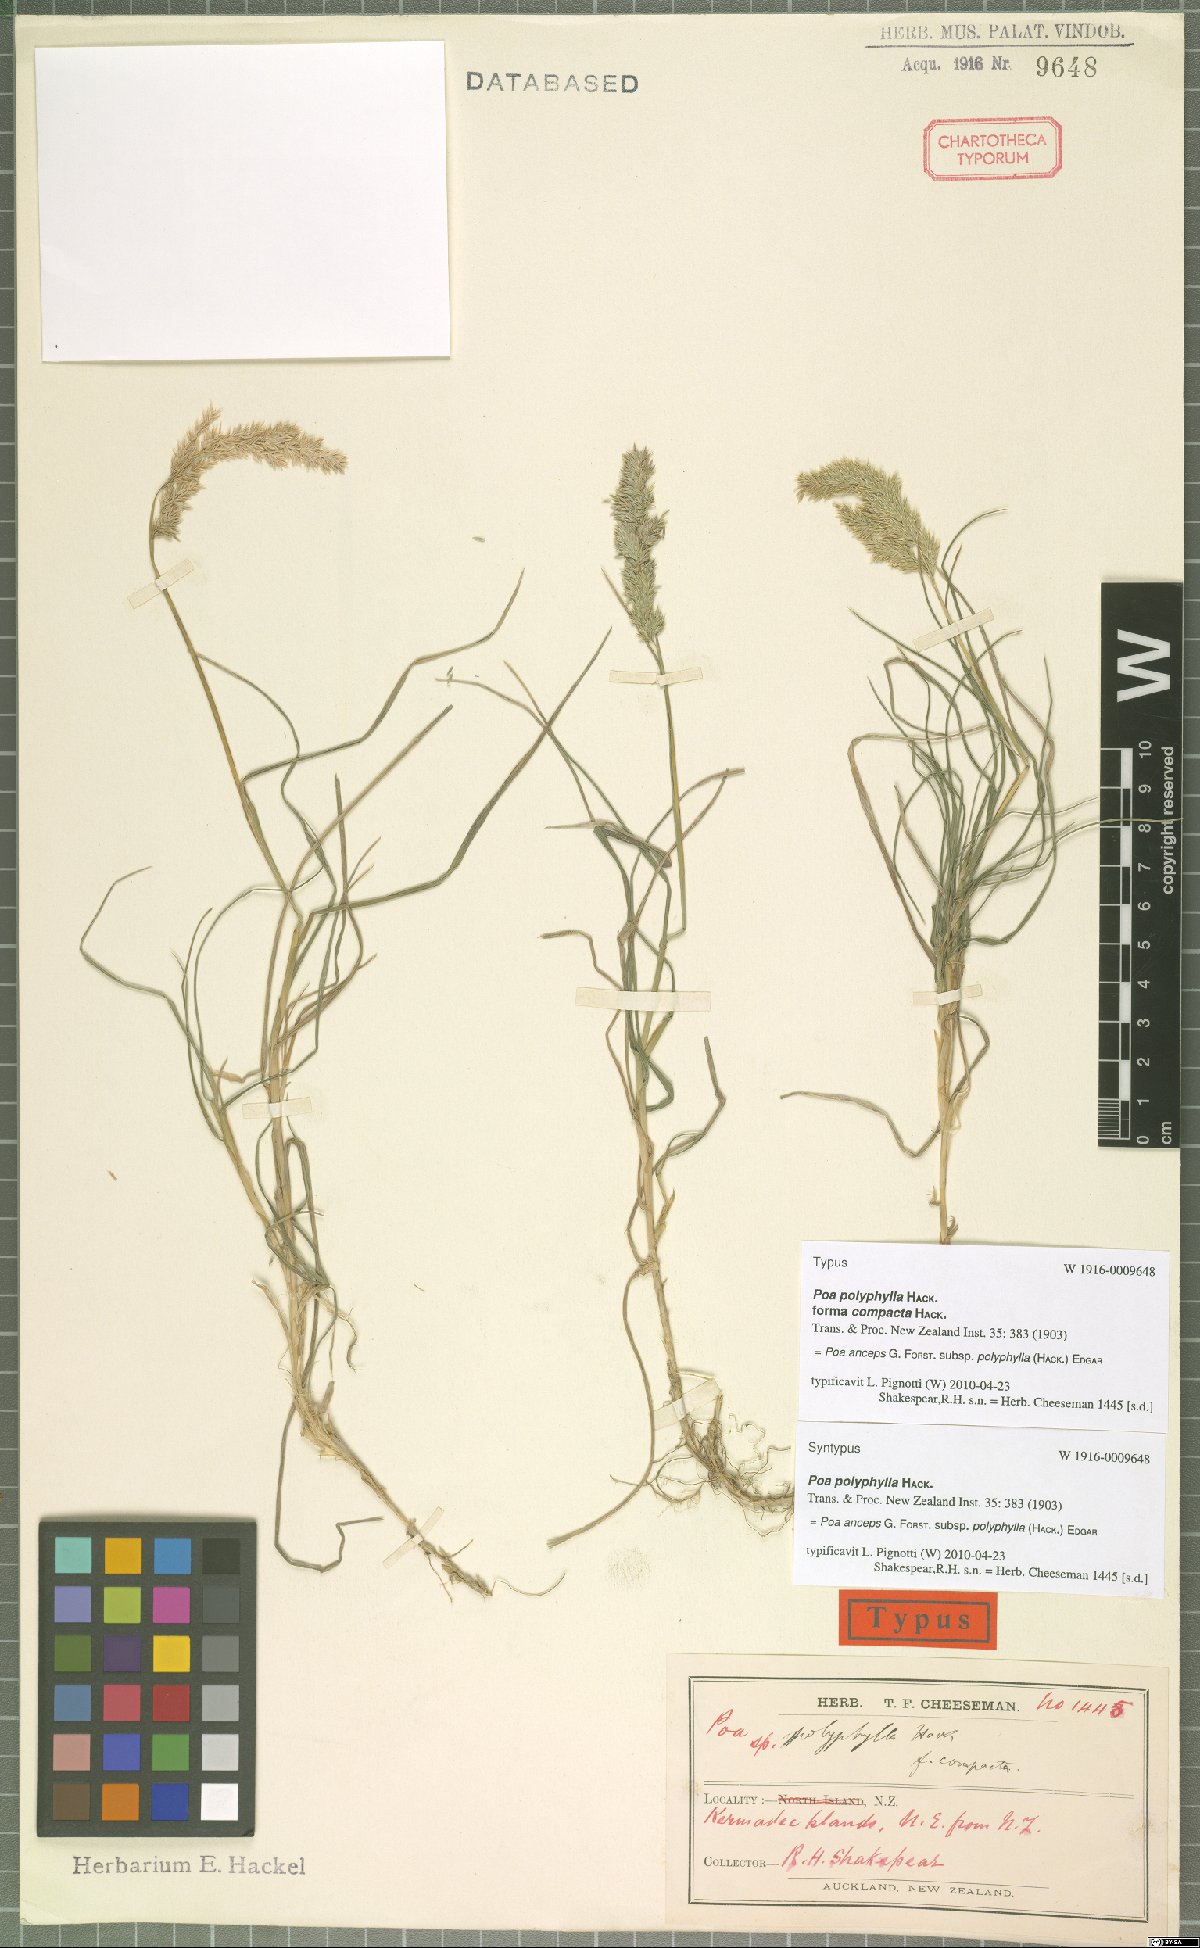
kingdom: Plantae
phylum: Tracheophyta
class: Liliopsida
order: Poales
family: Poaceae
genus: Poa
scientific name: Poa anceps
